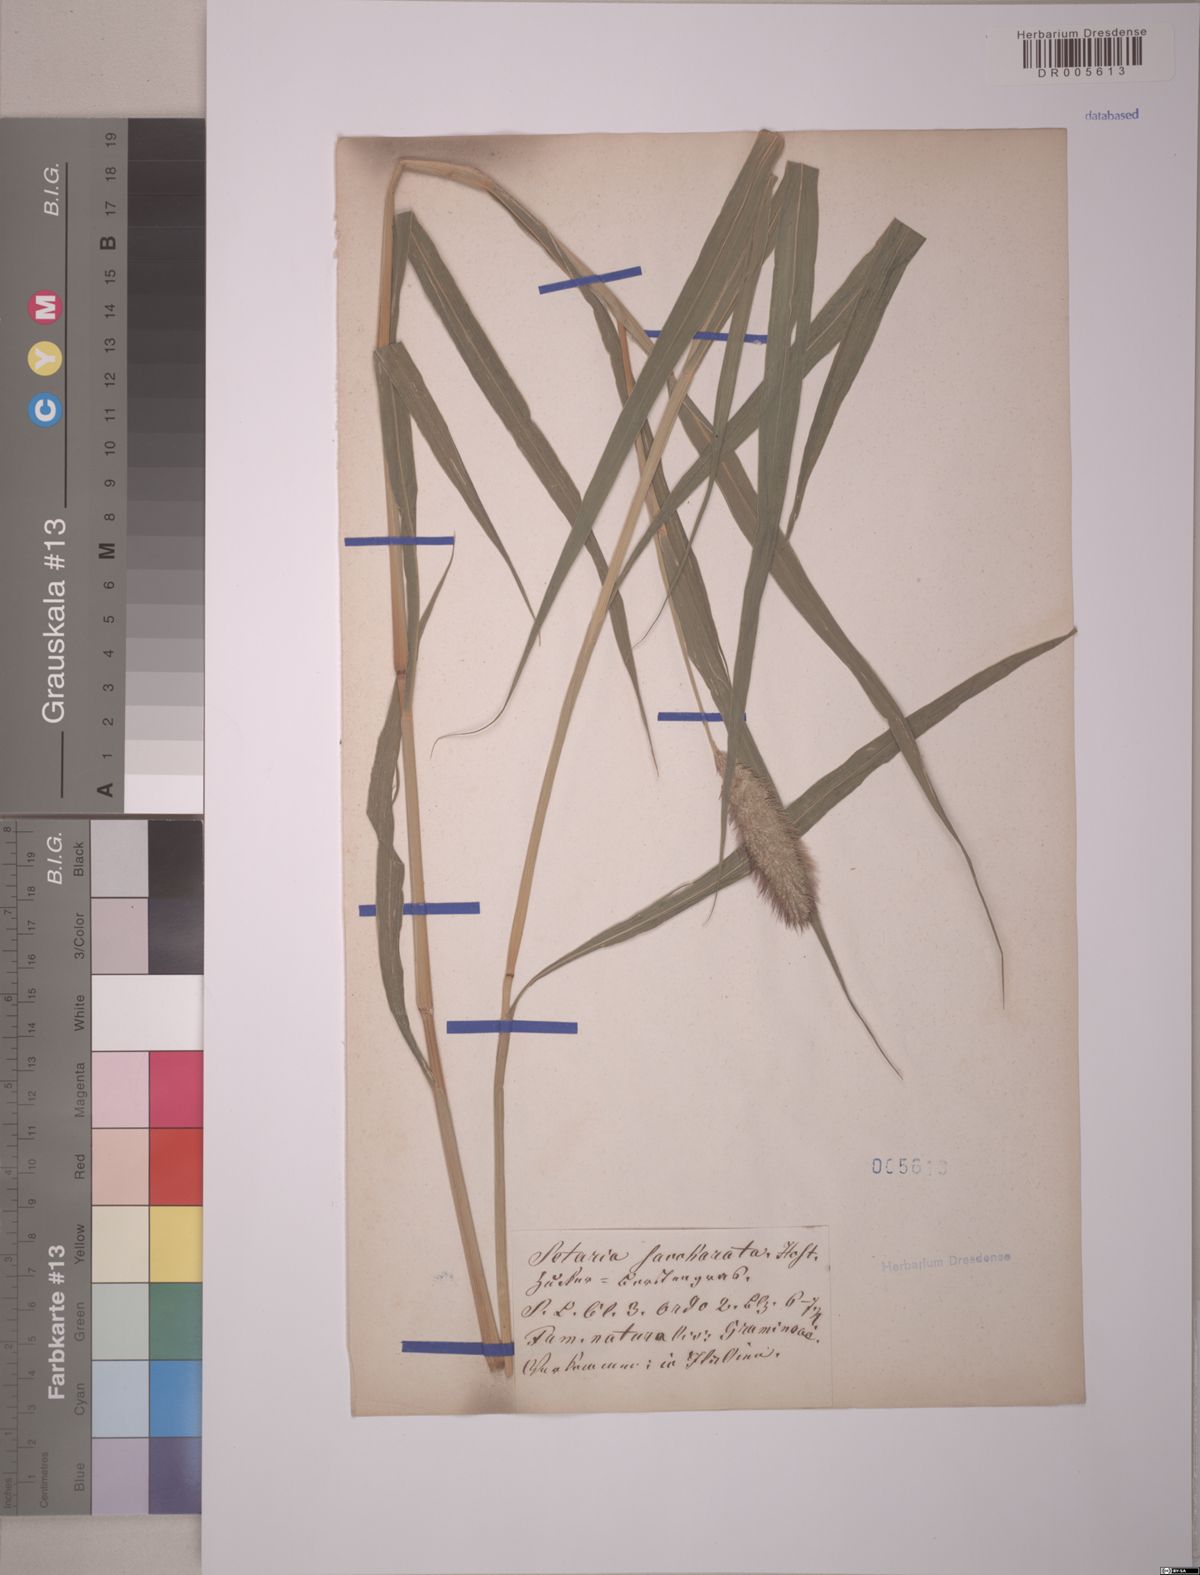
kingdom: Plantae
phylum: Tracheophyta
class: Liliopsida
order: Poales
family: Poaceae
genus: Setaria
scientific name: Setaria
